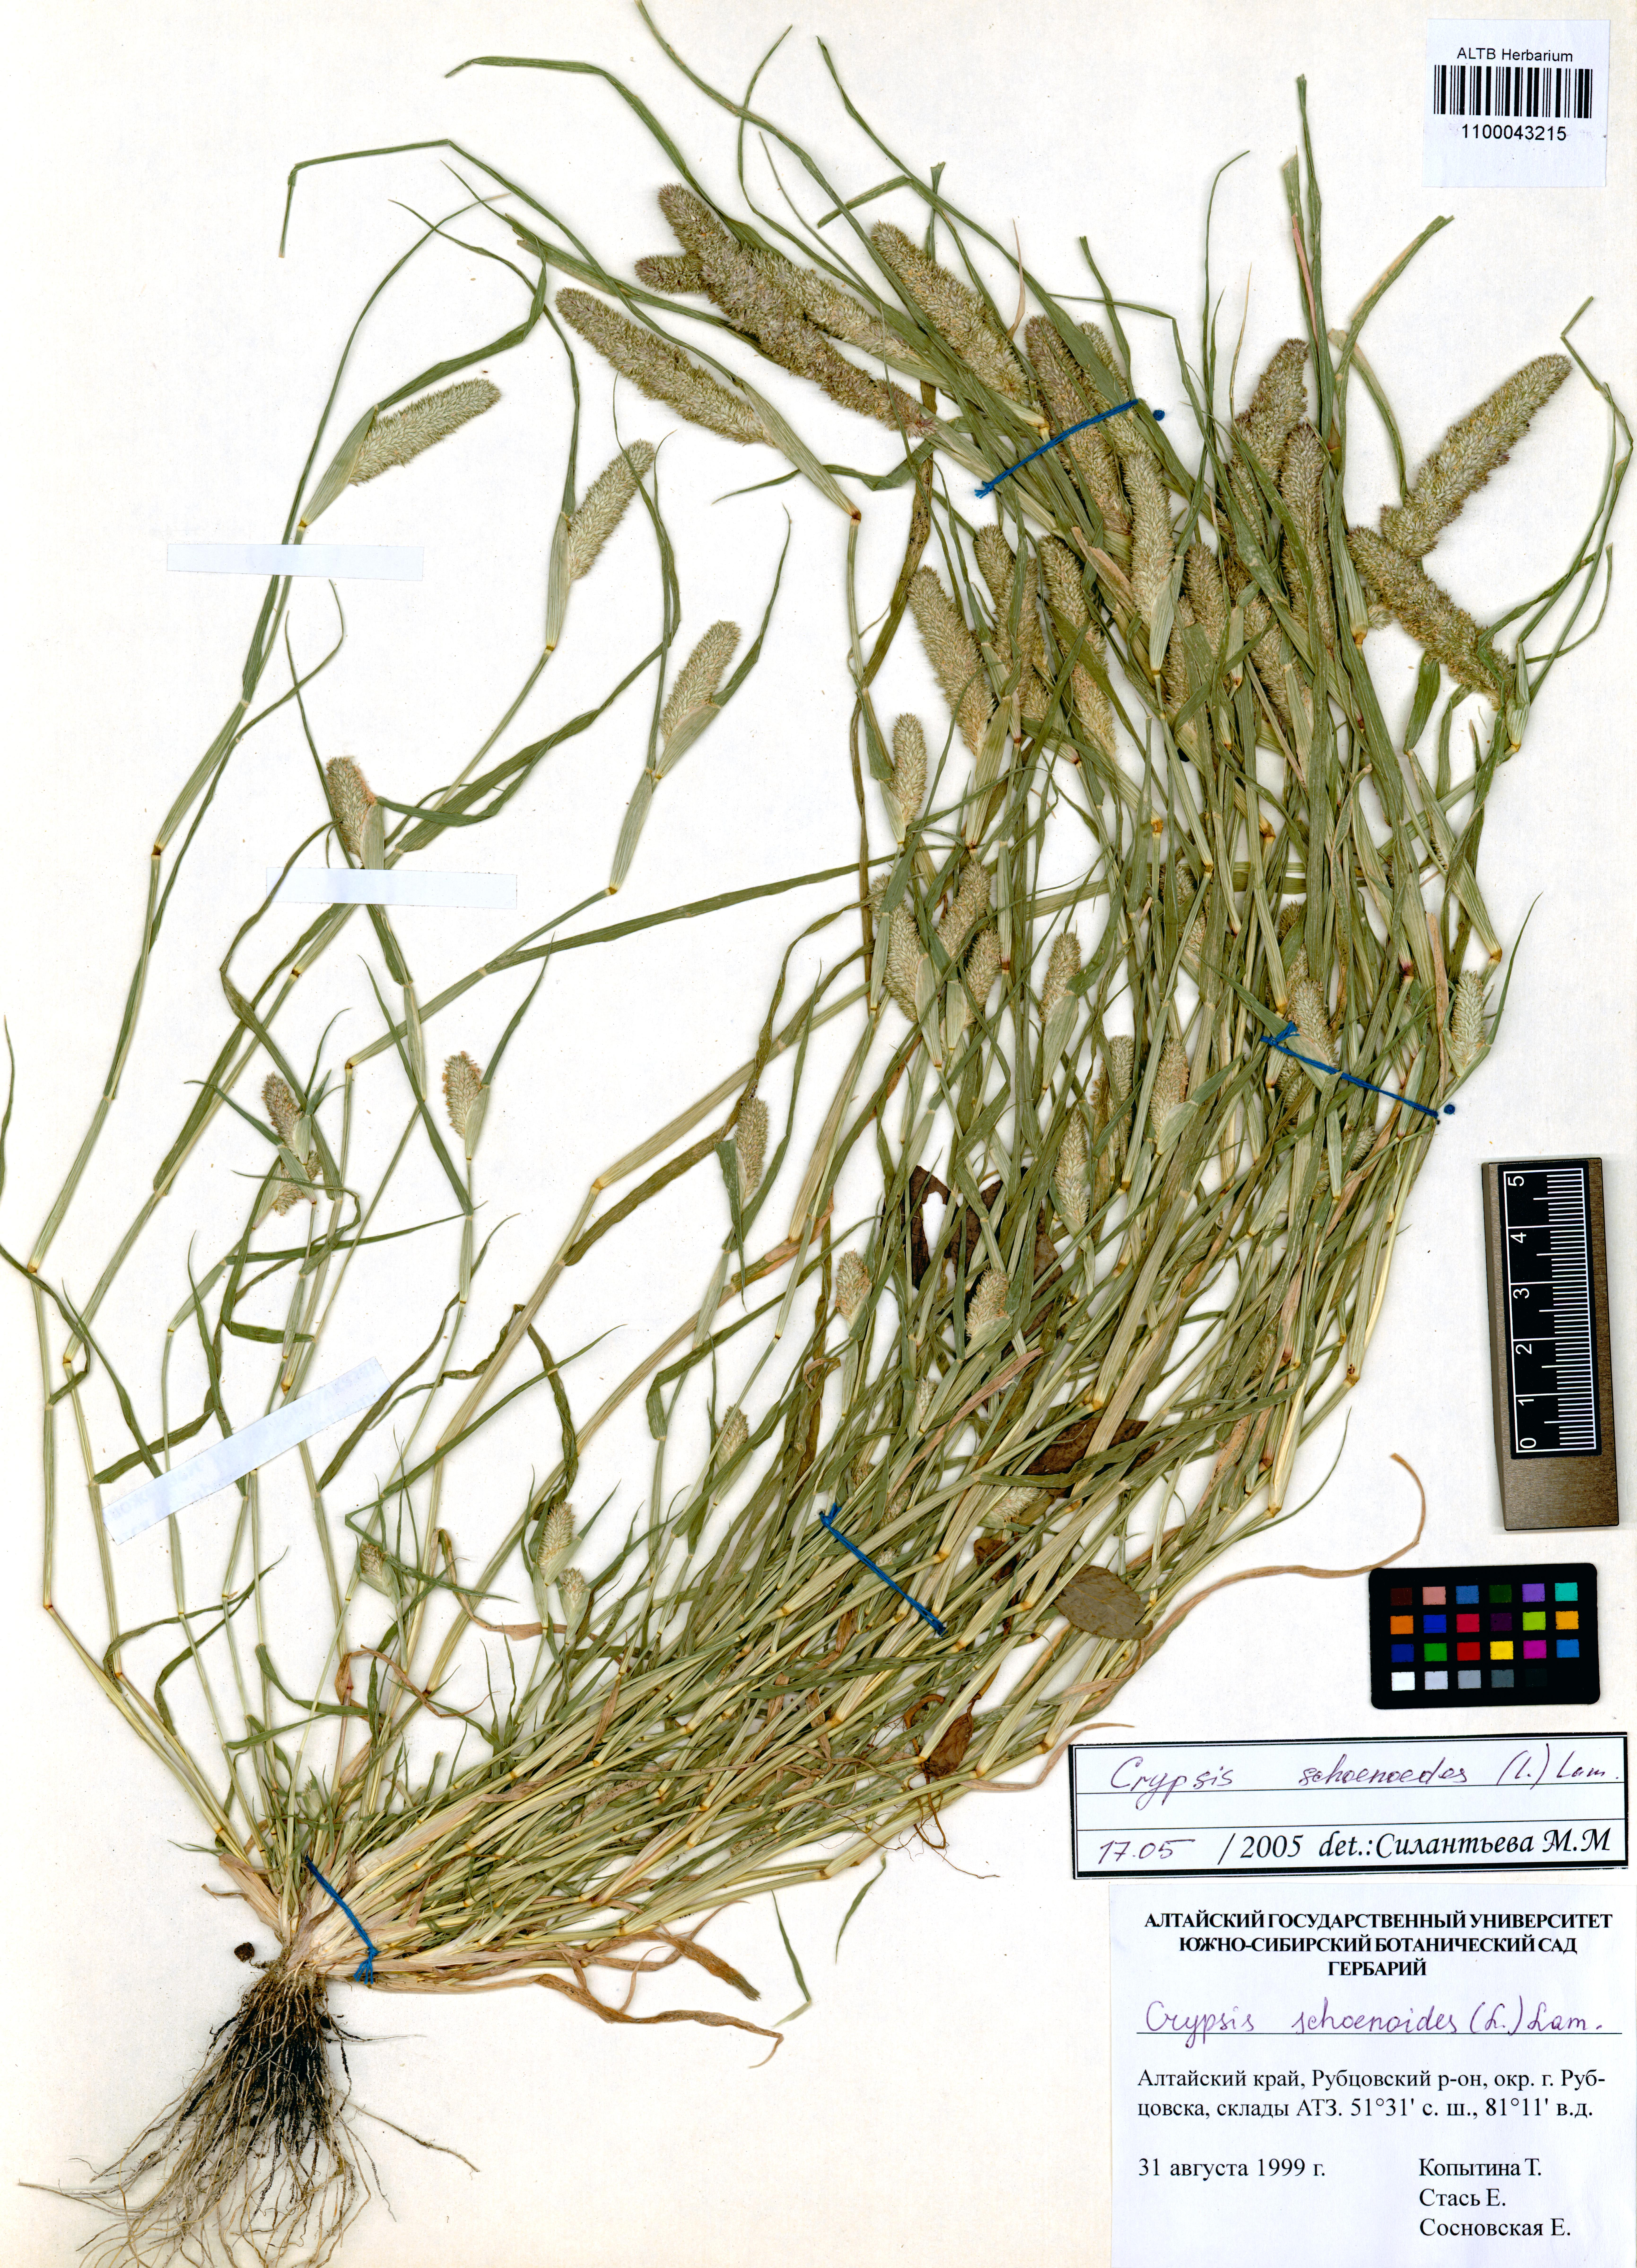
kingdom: Plantae
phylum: Tracheophyta
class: Liliopsida
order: Poales
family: Poaceae
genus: Sporobolus
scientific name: Sporobolus schoenoides
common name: Rush-like timothy
